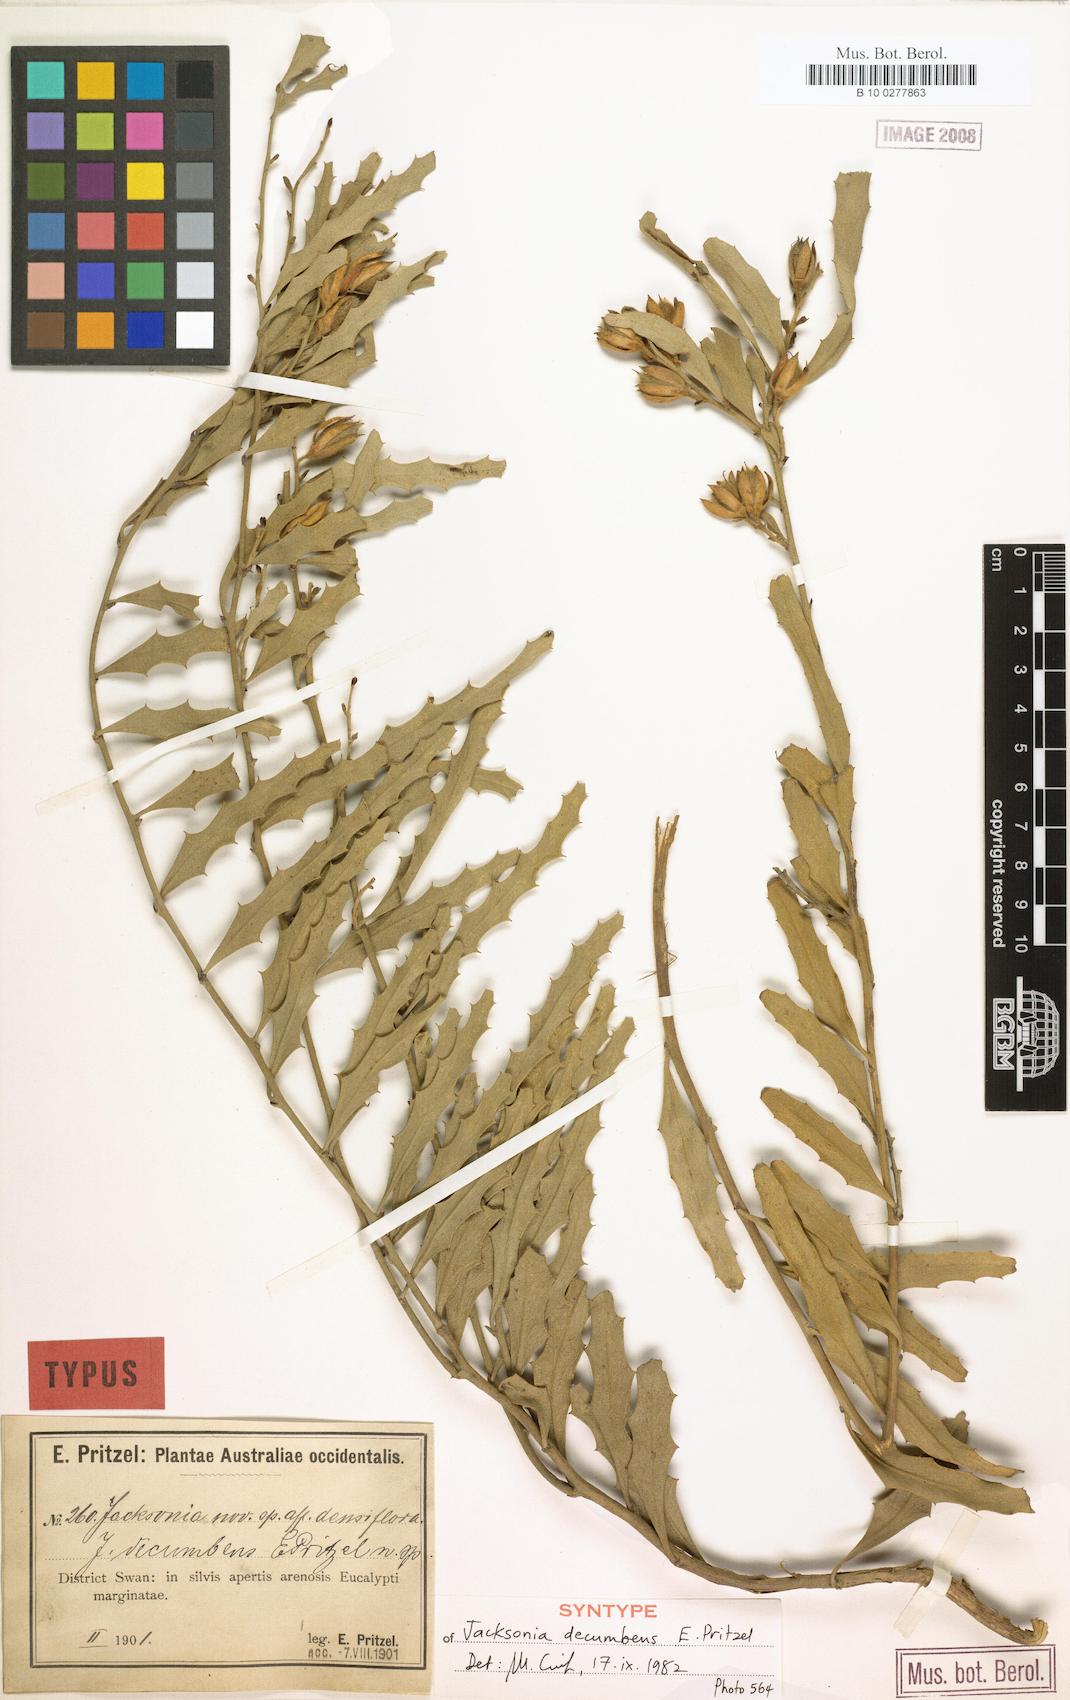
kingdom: Plantae
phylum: Tracheophyta
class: Magnoliopsida
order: Fabales
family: Fabaceae
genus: Jacksonia
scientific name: Jacksonia floribunda
